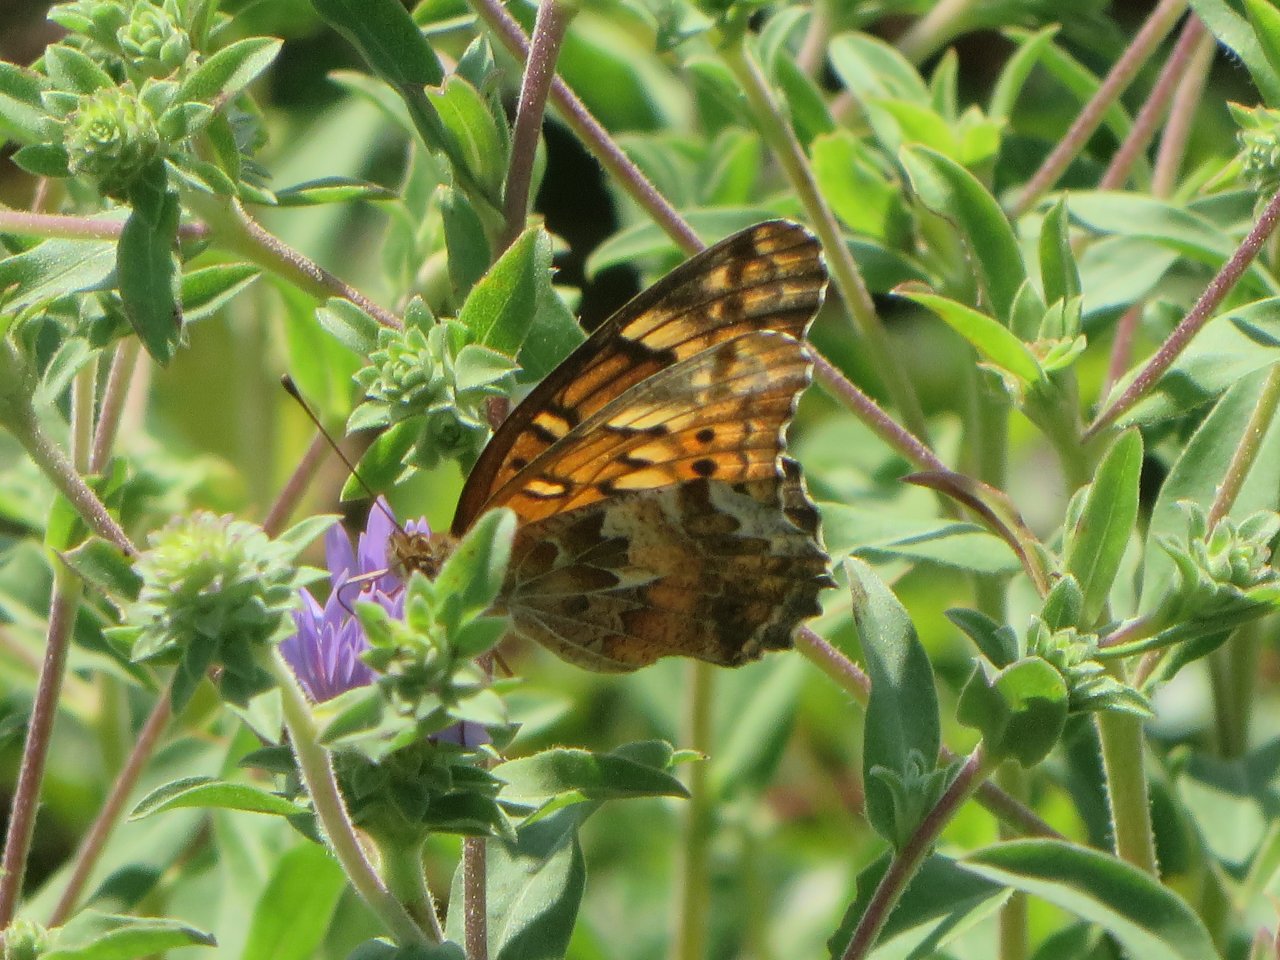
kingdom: Animalia
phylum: Arthropoda
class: Insecta
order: Lepidoptera
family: Nymphalidae
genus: Euptoieta
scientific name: Euptoieta claudia
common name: Variegated Fritillary
